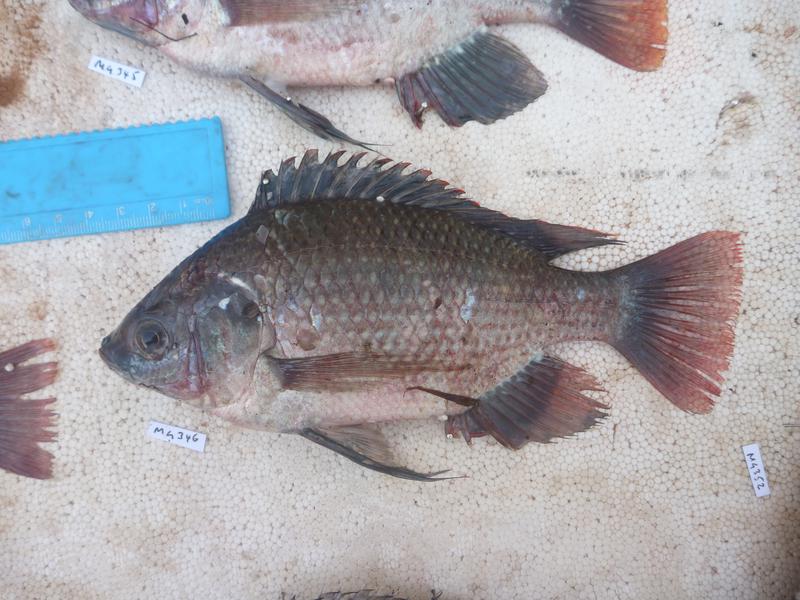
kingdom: Animalia
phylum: Chordata
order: Perciformes
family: Cichlidae
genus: Oreochromis
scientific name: Oreochromis esculentus
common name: Carp
